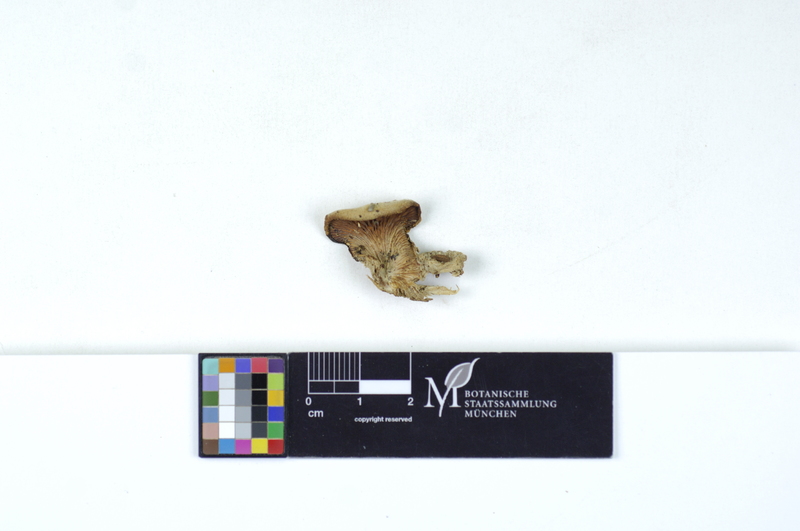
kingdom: Plantae
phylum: Tracheophyta
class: Magnoliopsida
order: Fagales
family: Betulaceae
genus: Betula
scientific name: Betula
